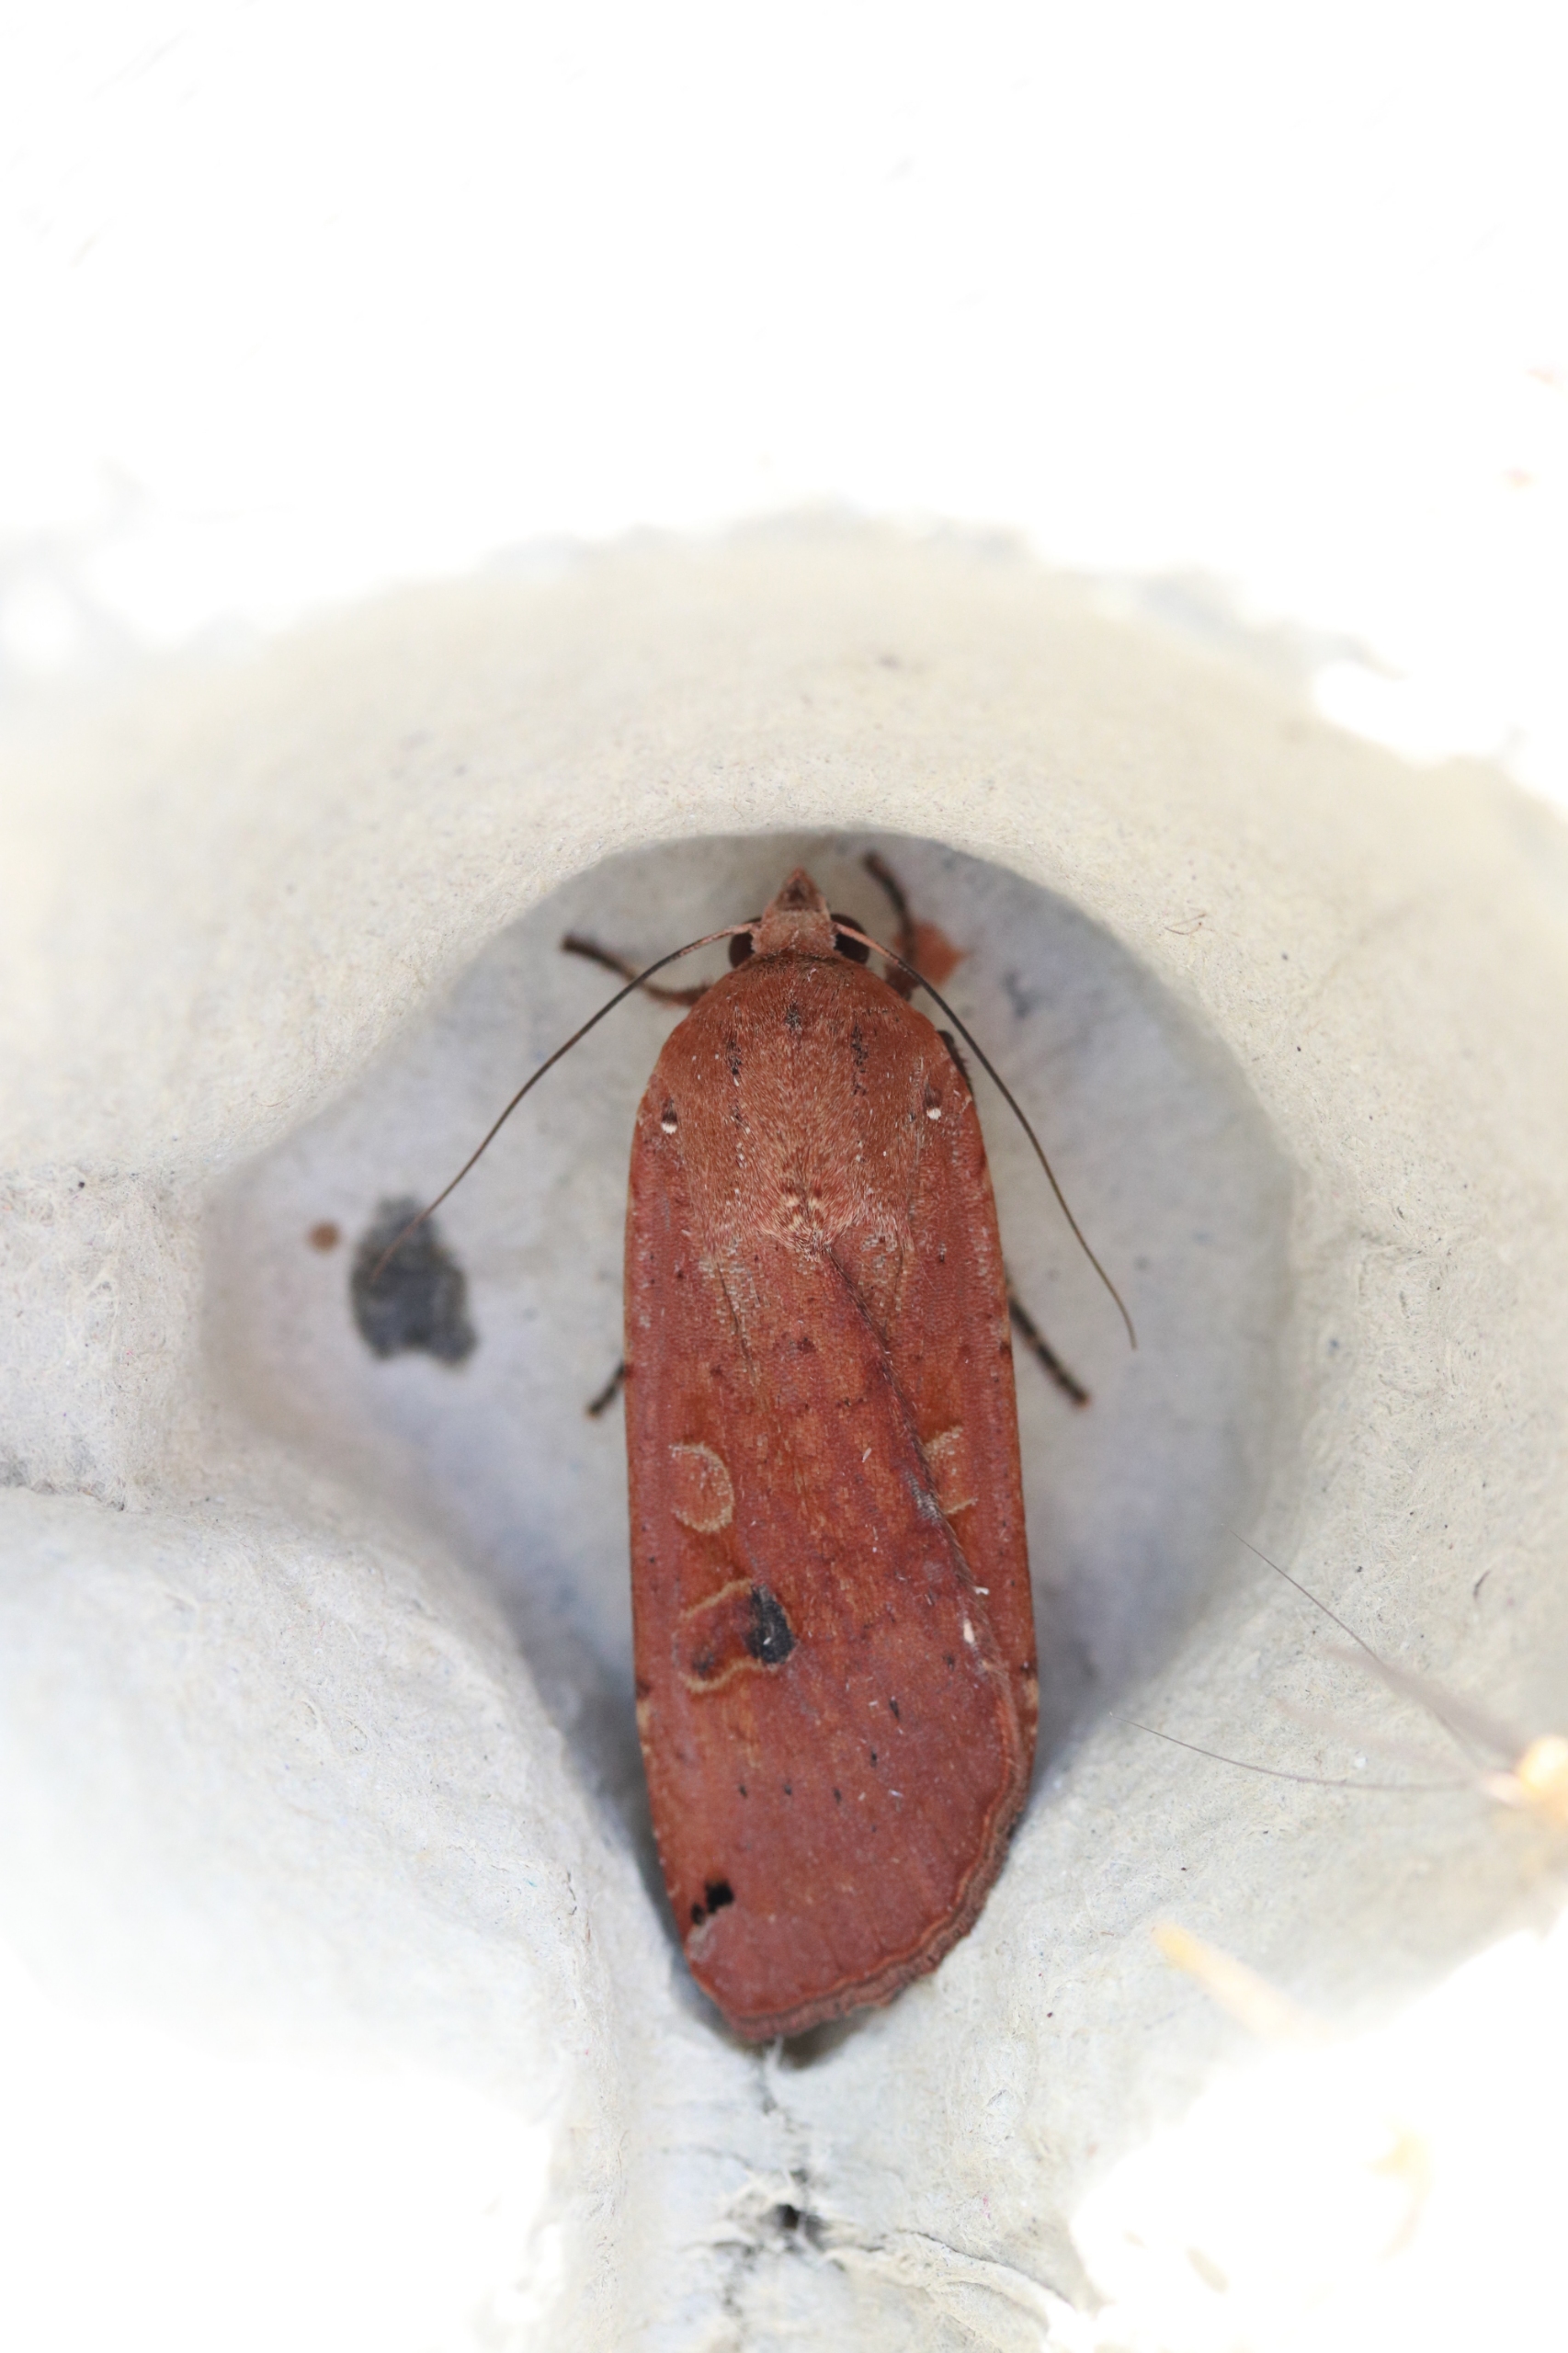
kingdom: Animalia
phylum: Arthropoda
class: Insecta
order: Lepidoptera
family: Noctuidae
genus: Noctua
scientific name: Noctua pronuba
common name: Stor smutugle
